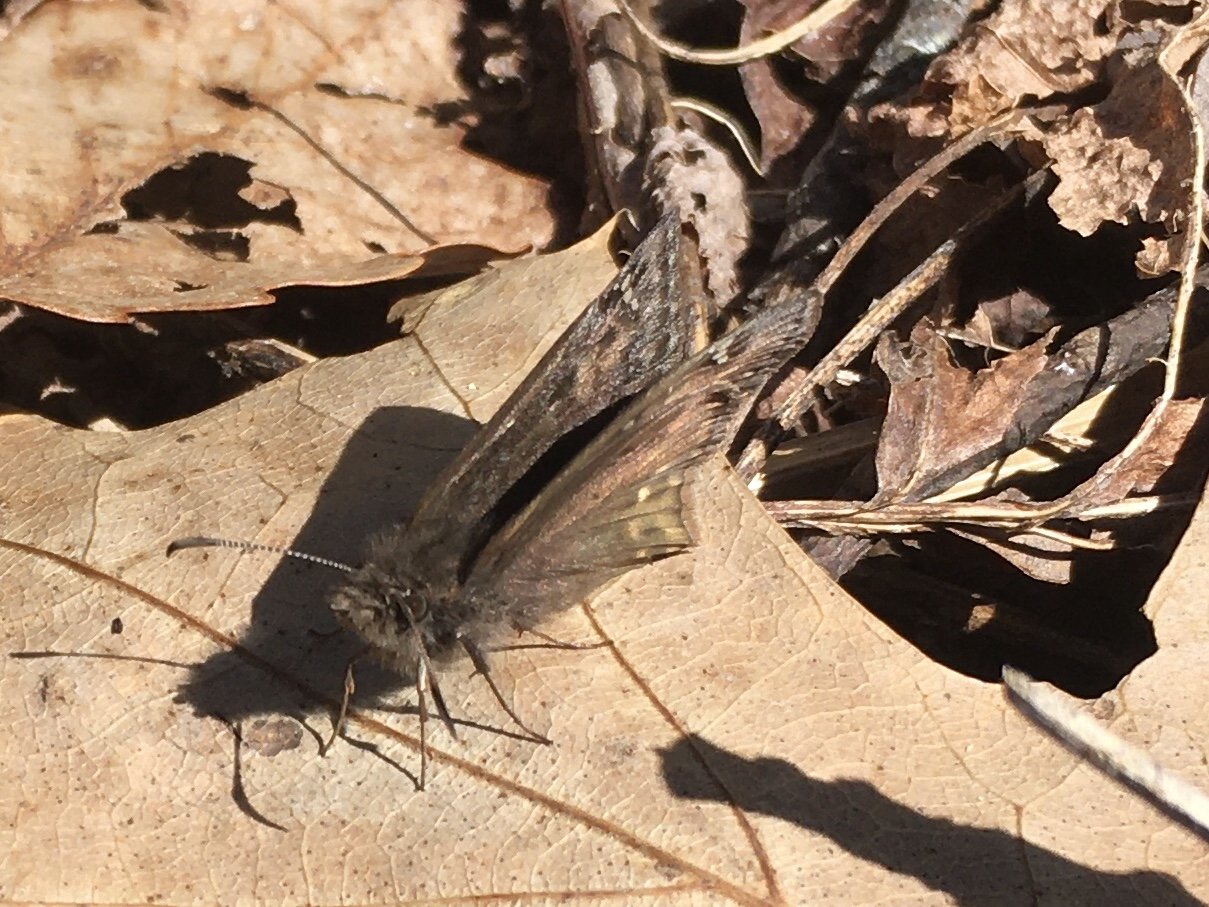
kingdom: Animalia
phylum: Arthropoda
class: Insecta
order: Lepidoptera
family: Hesperiidae
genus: Gesta
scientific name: Gesta
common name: Juvenal's Duskywing
